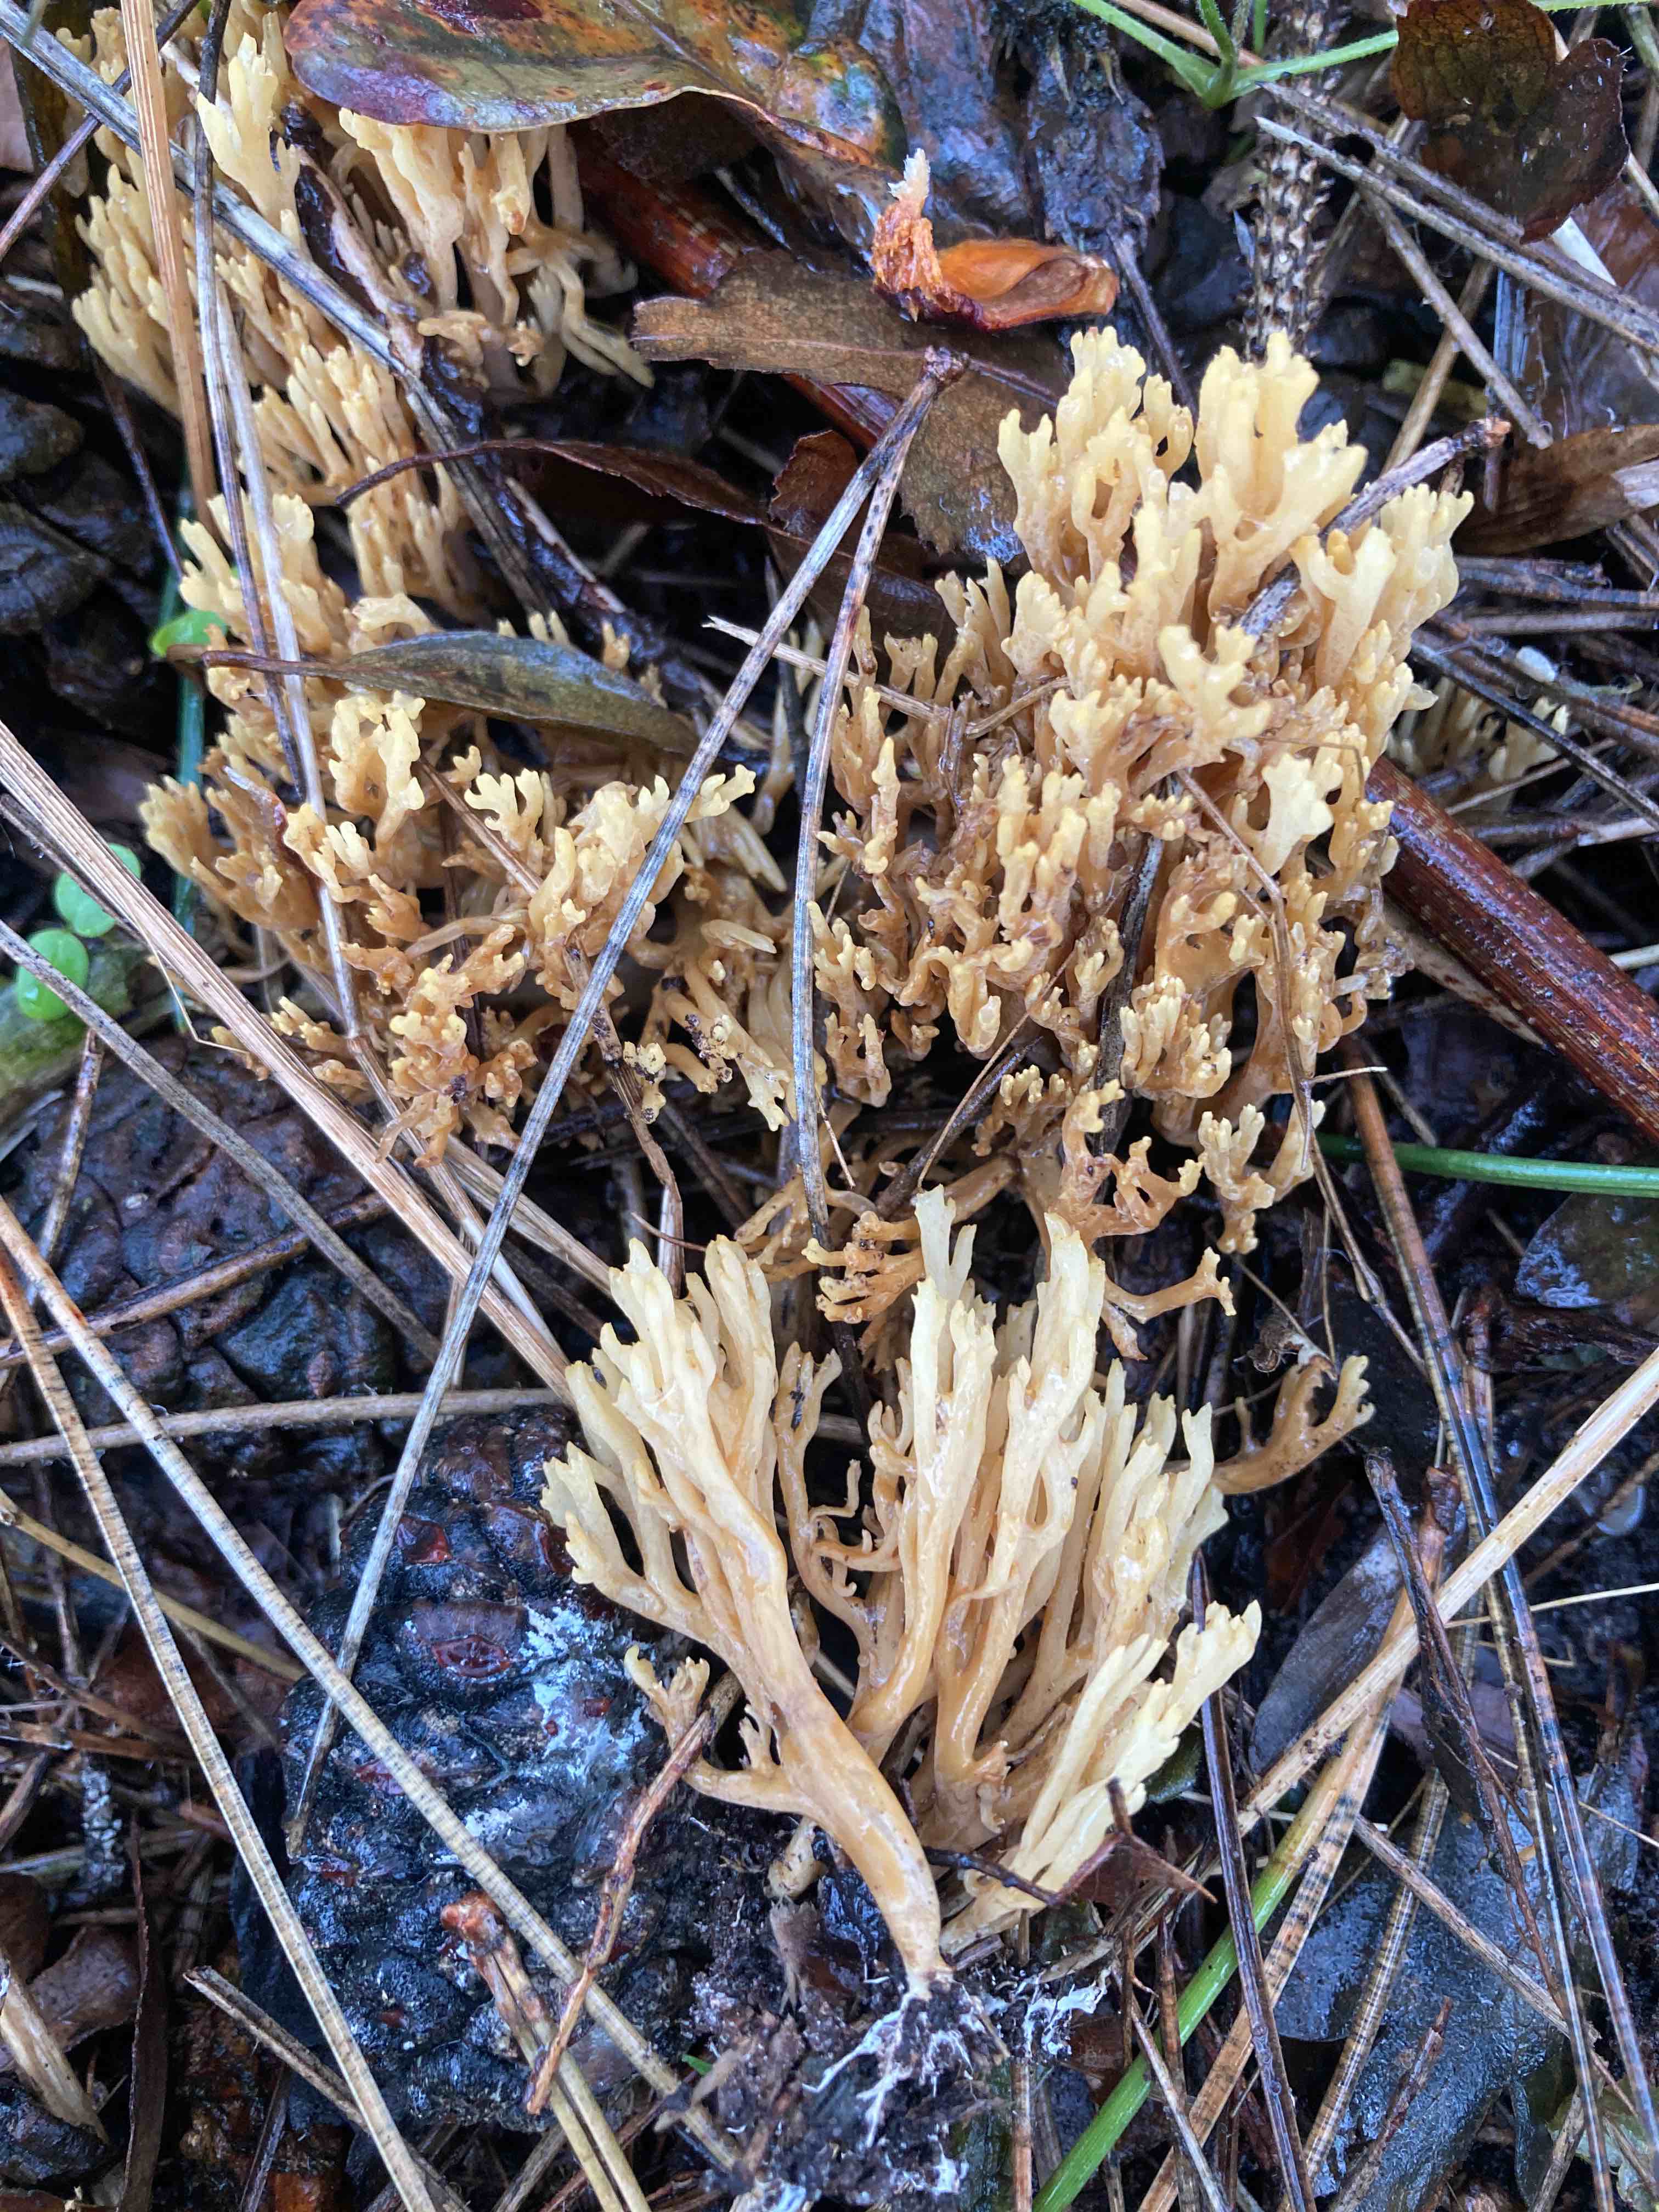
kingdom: Fungi
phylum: Basidiomycota
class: Agaricomycetes
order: Gomphales
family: Gomphaceae
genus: Phaeoclavulina
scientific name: Phaeoclavulina decurrens
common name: krat-koralsvamp
